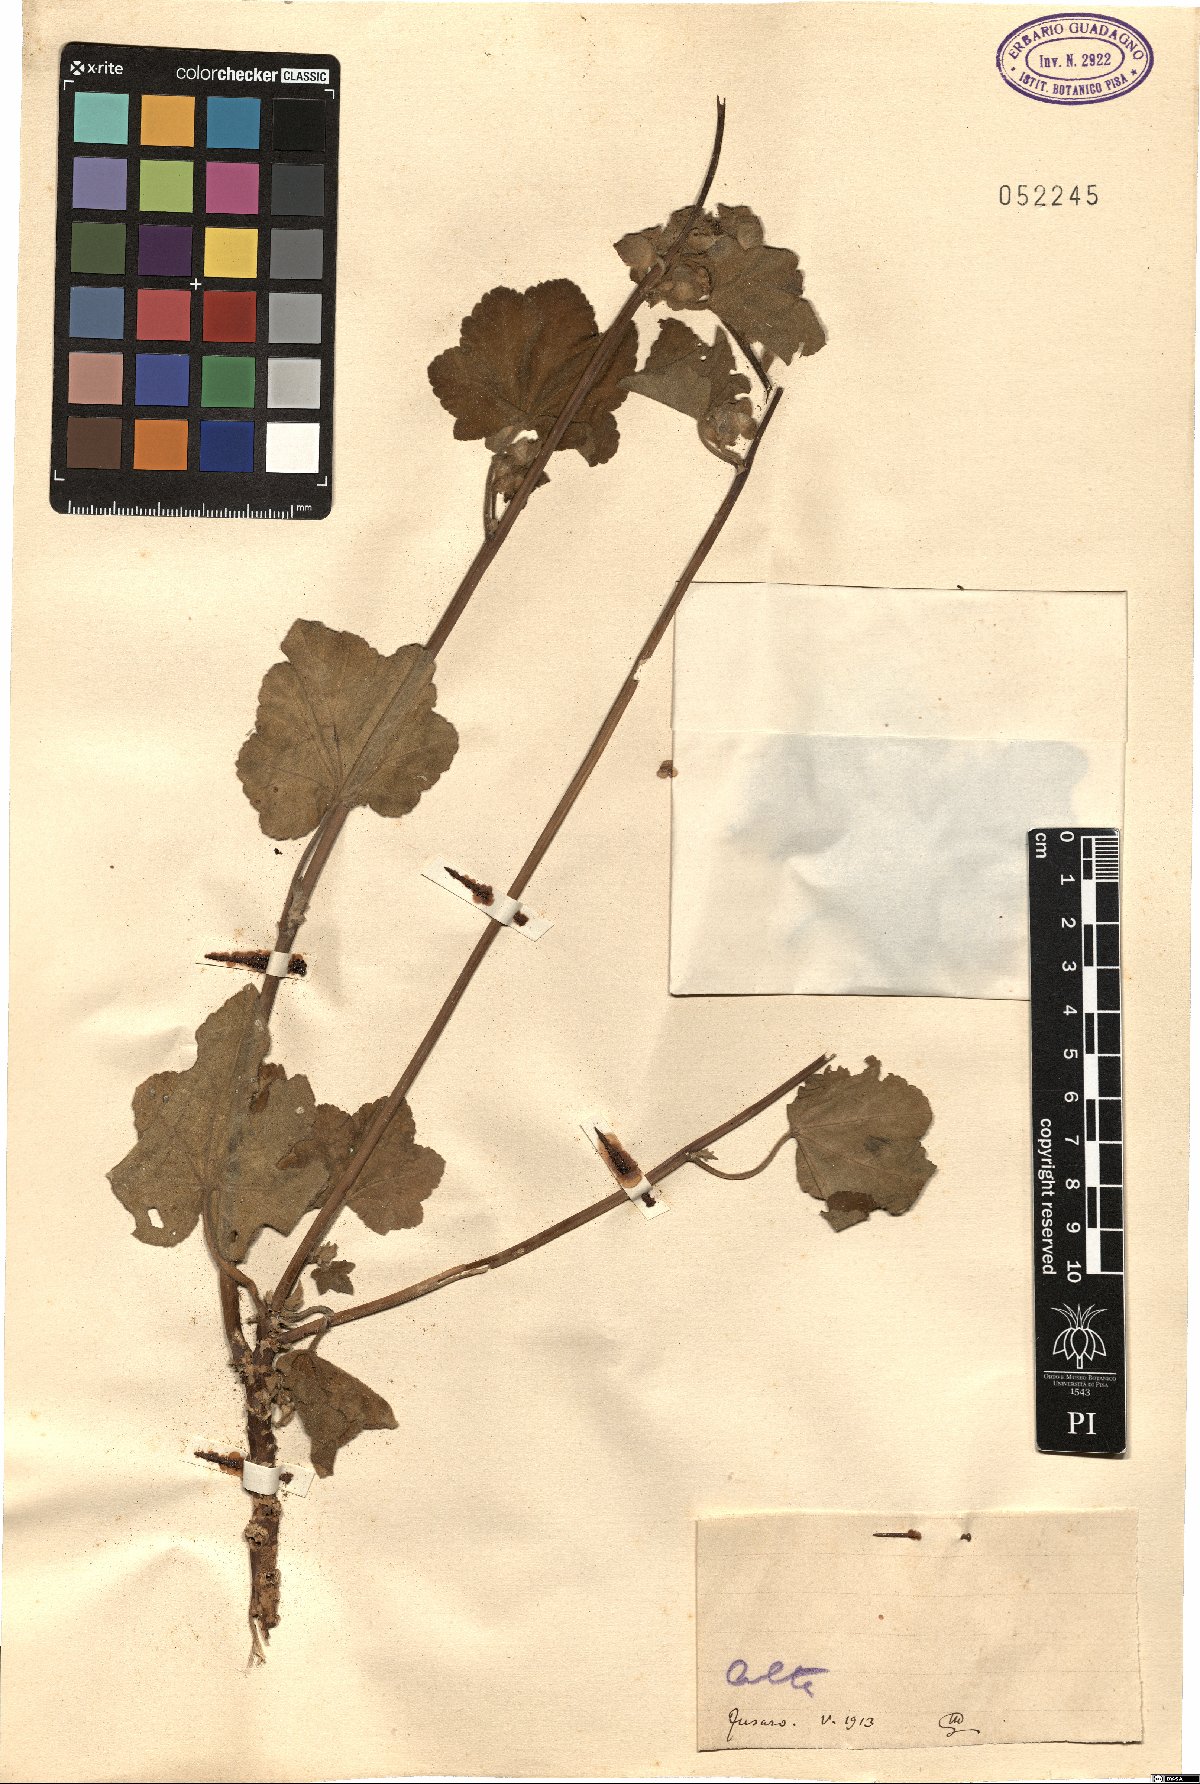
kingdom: Plantae
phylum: Tracheophyta
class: Magnoliopsida
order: Malvales
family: Malvaceae
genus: Malva
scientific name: Malva
